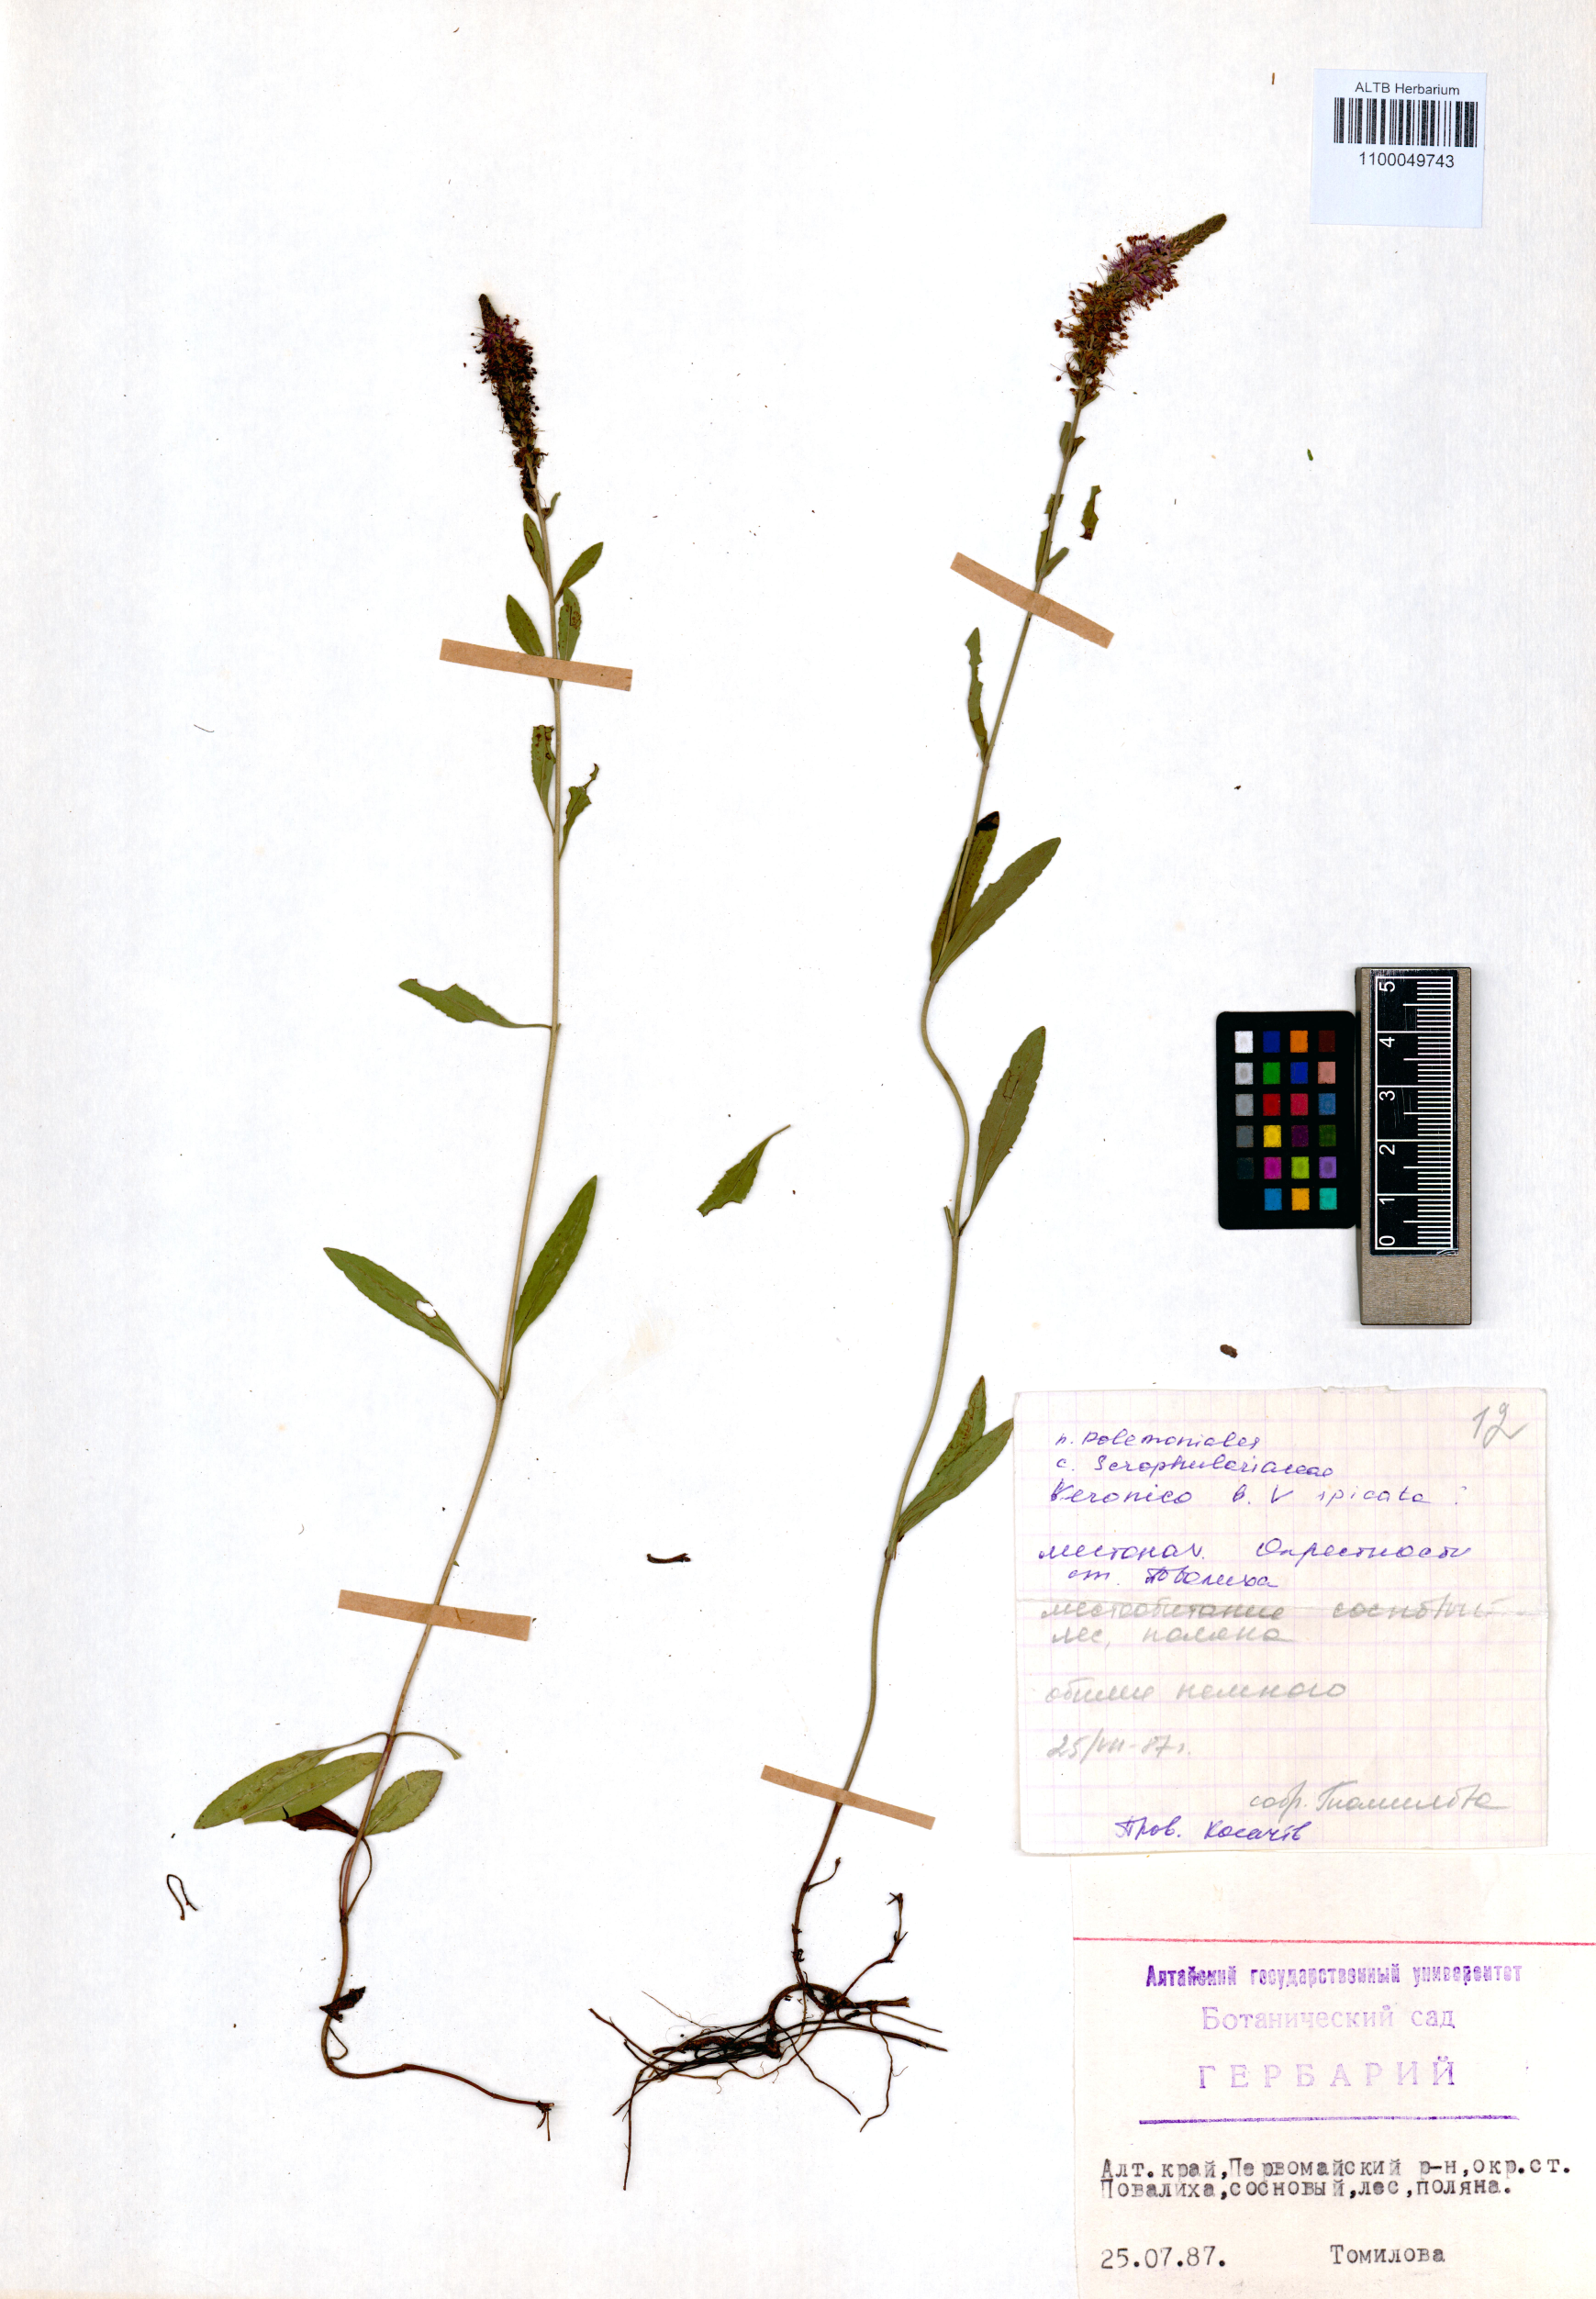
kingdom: Plantae
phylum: Tracheophyta
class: Magnoliopsida
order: Lamiales
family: Plantaginaceae
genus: Veronica
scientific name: Veronica spicata
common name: Spiked speedwell
